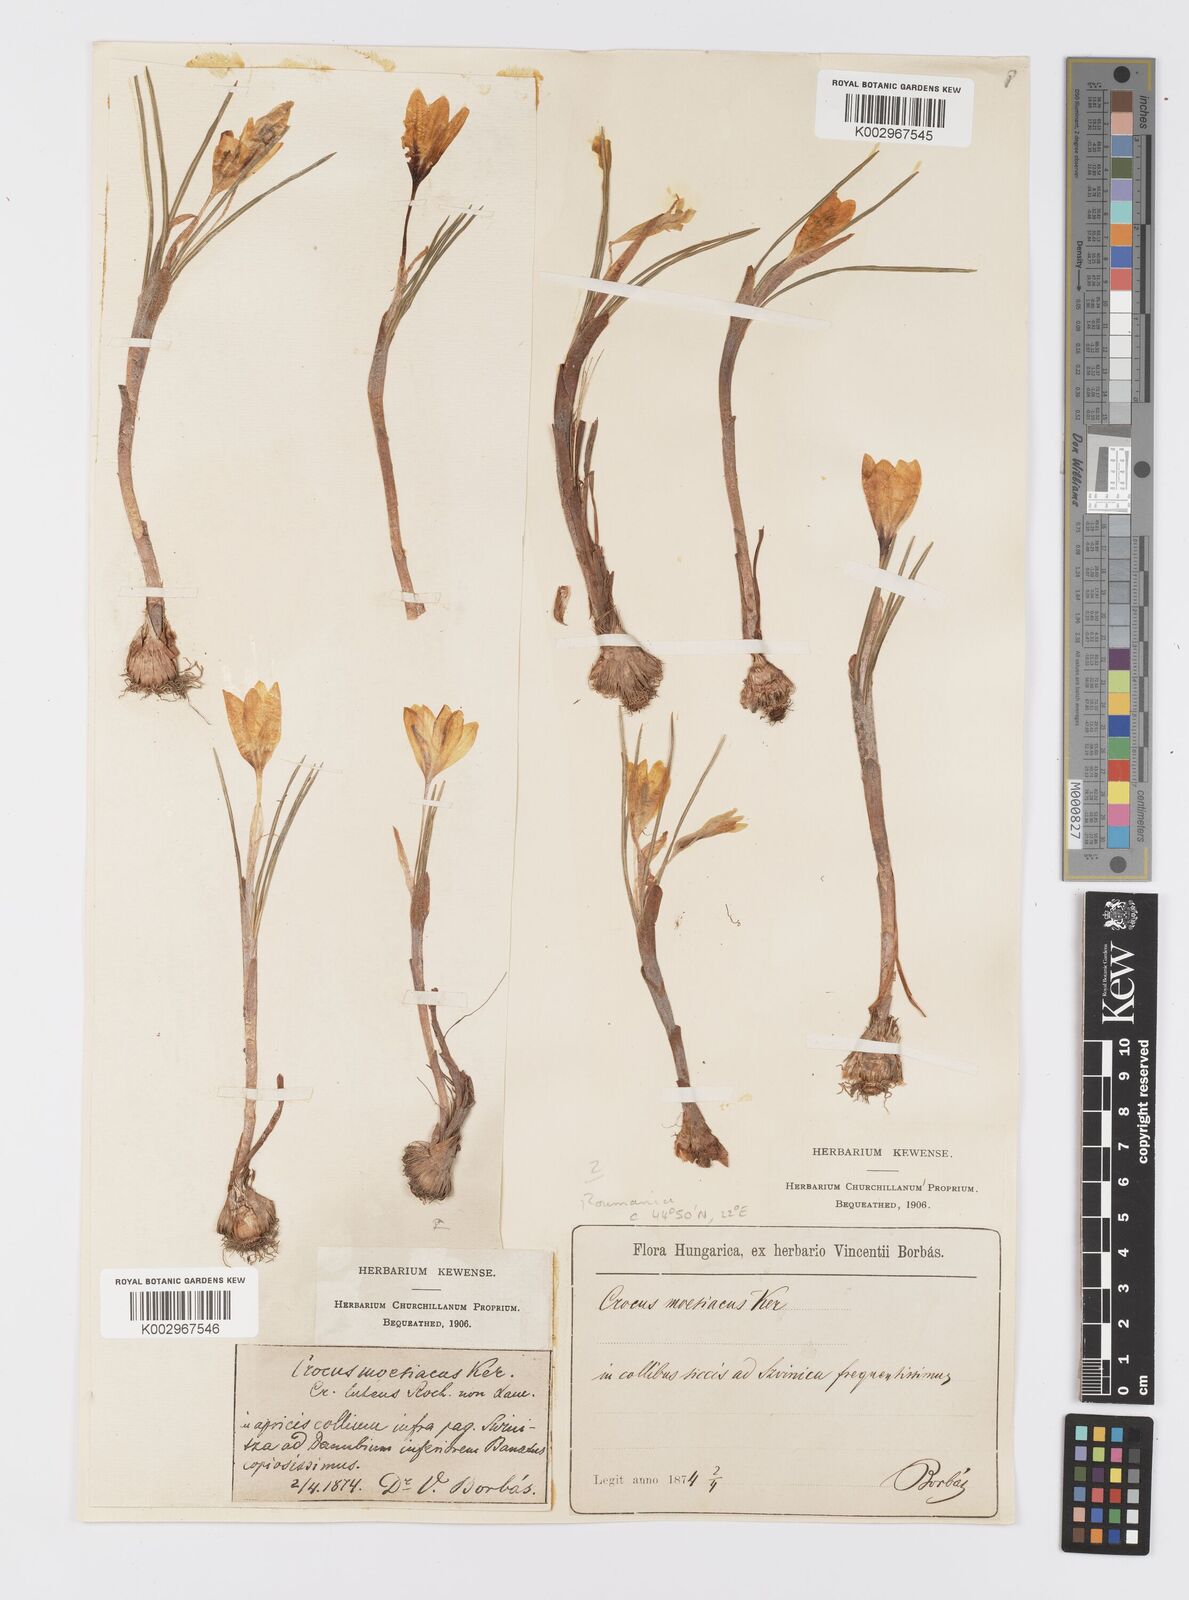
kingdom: Plantae
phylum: Tracheophyta
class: Liliopsida
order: Asparagales
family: Iridaceae
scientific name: Iridaceae
